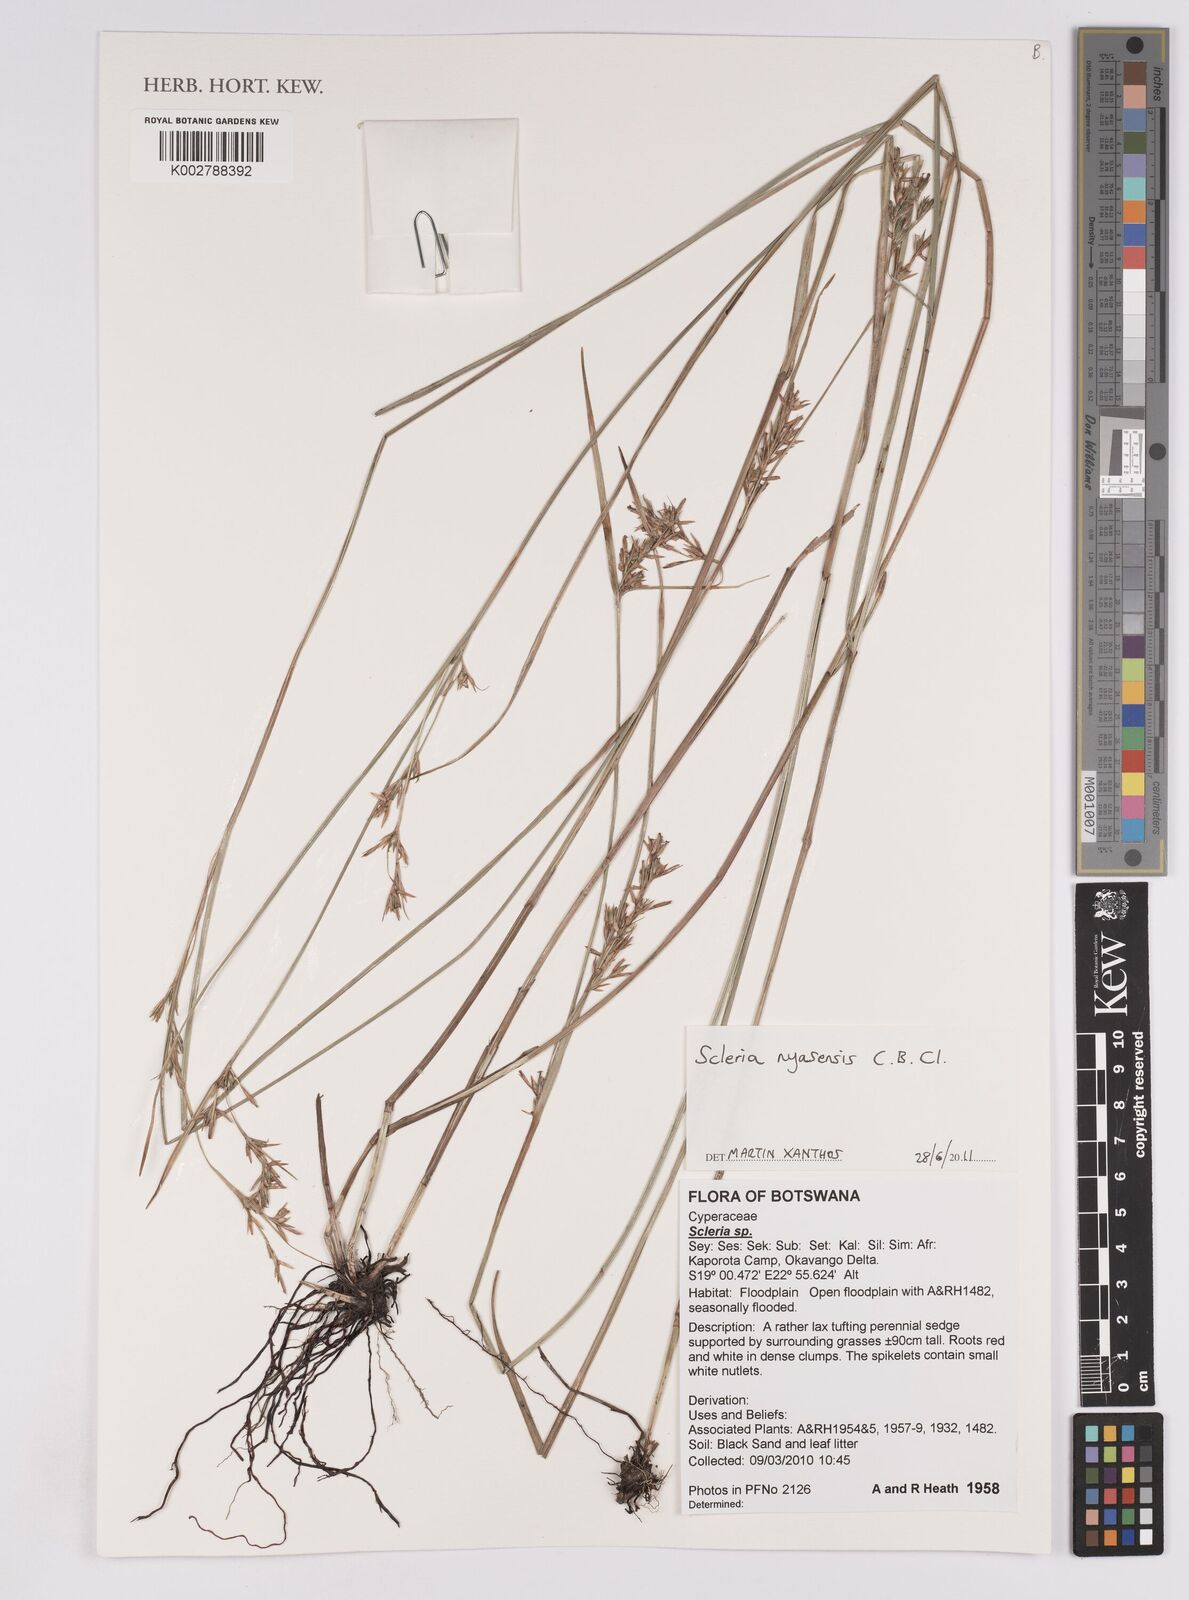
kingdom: Plantae
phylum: Tracheophyta
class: Liliopsida
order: Poales
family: Cyperaceae
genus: Scleria
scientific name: Scleria nyasensis
